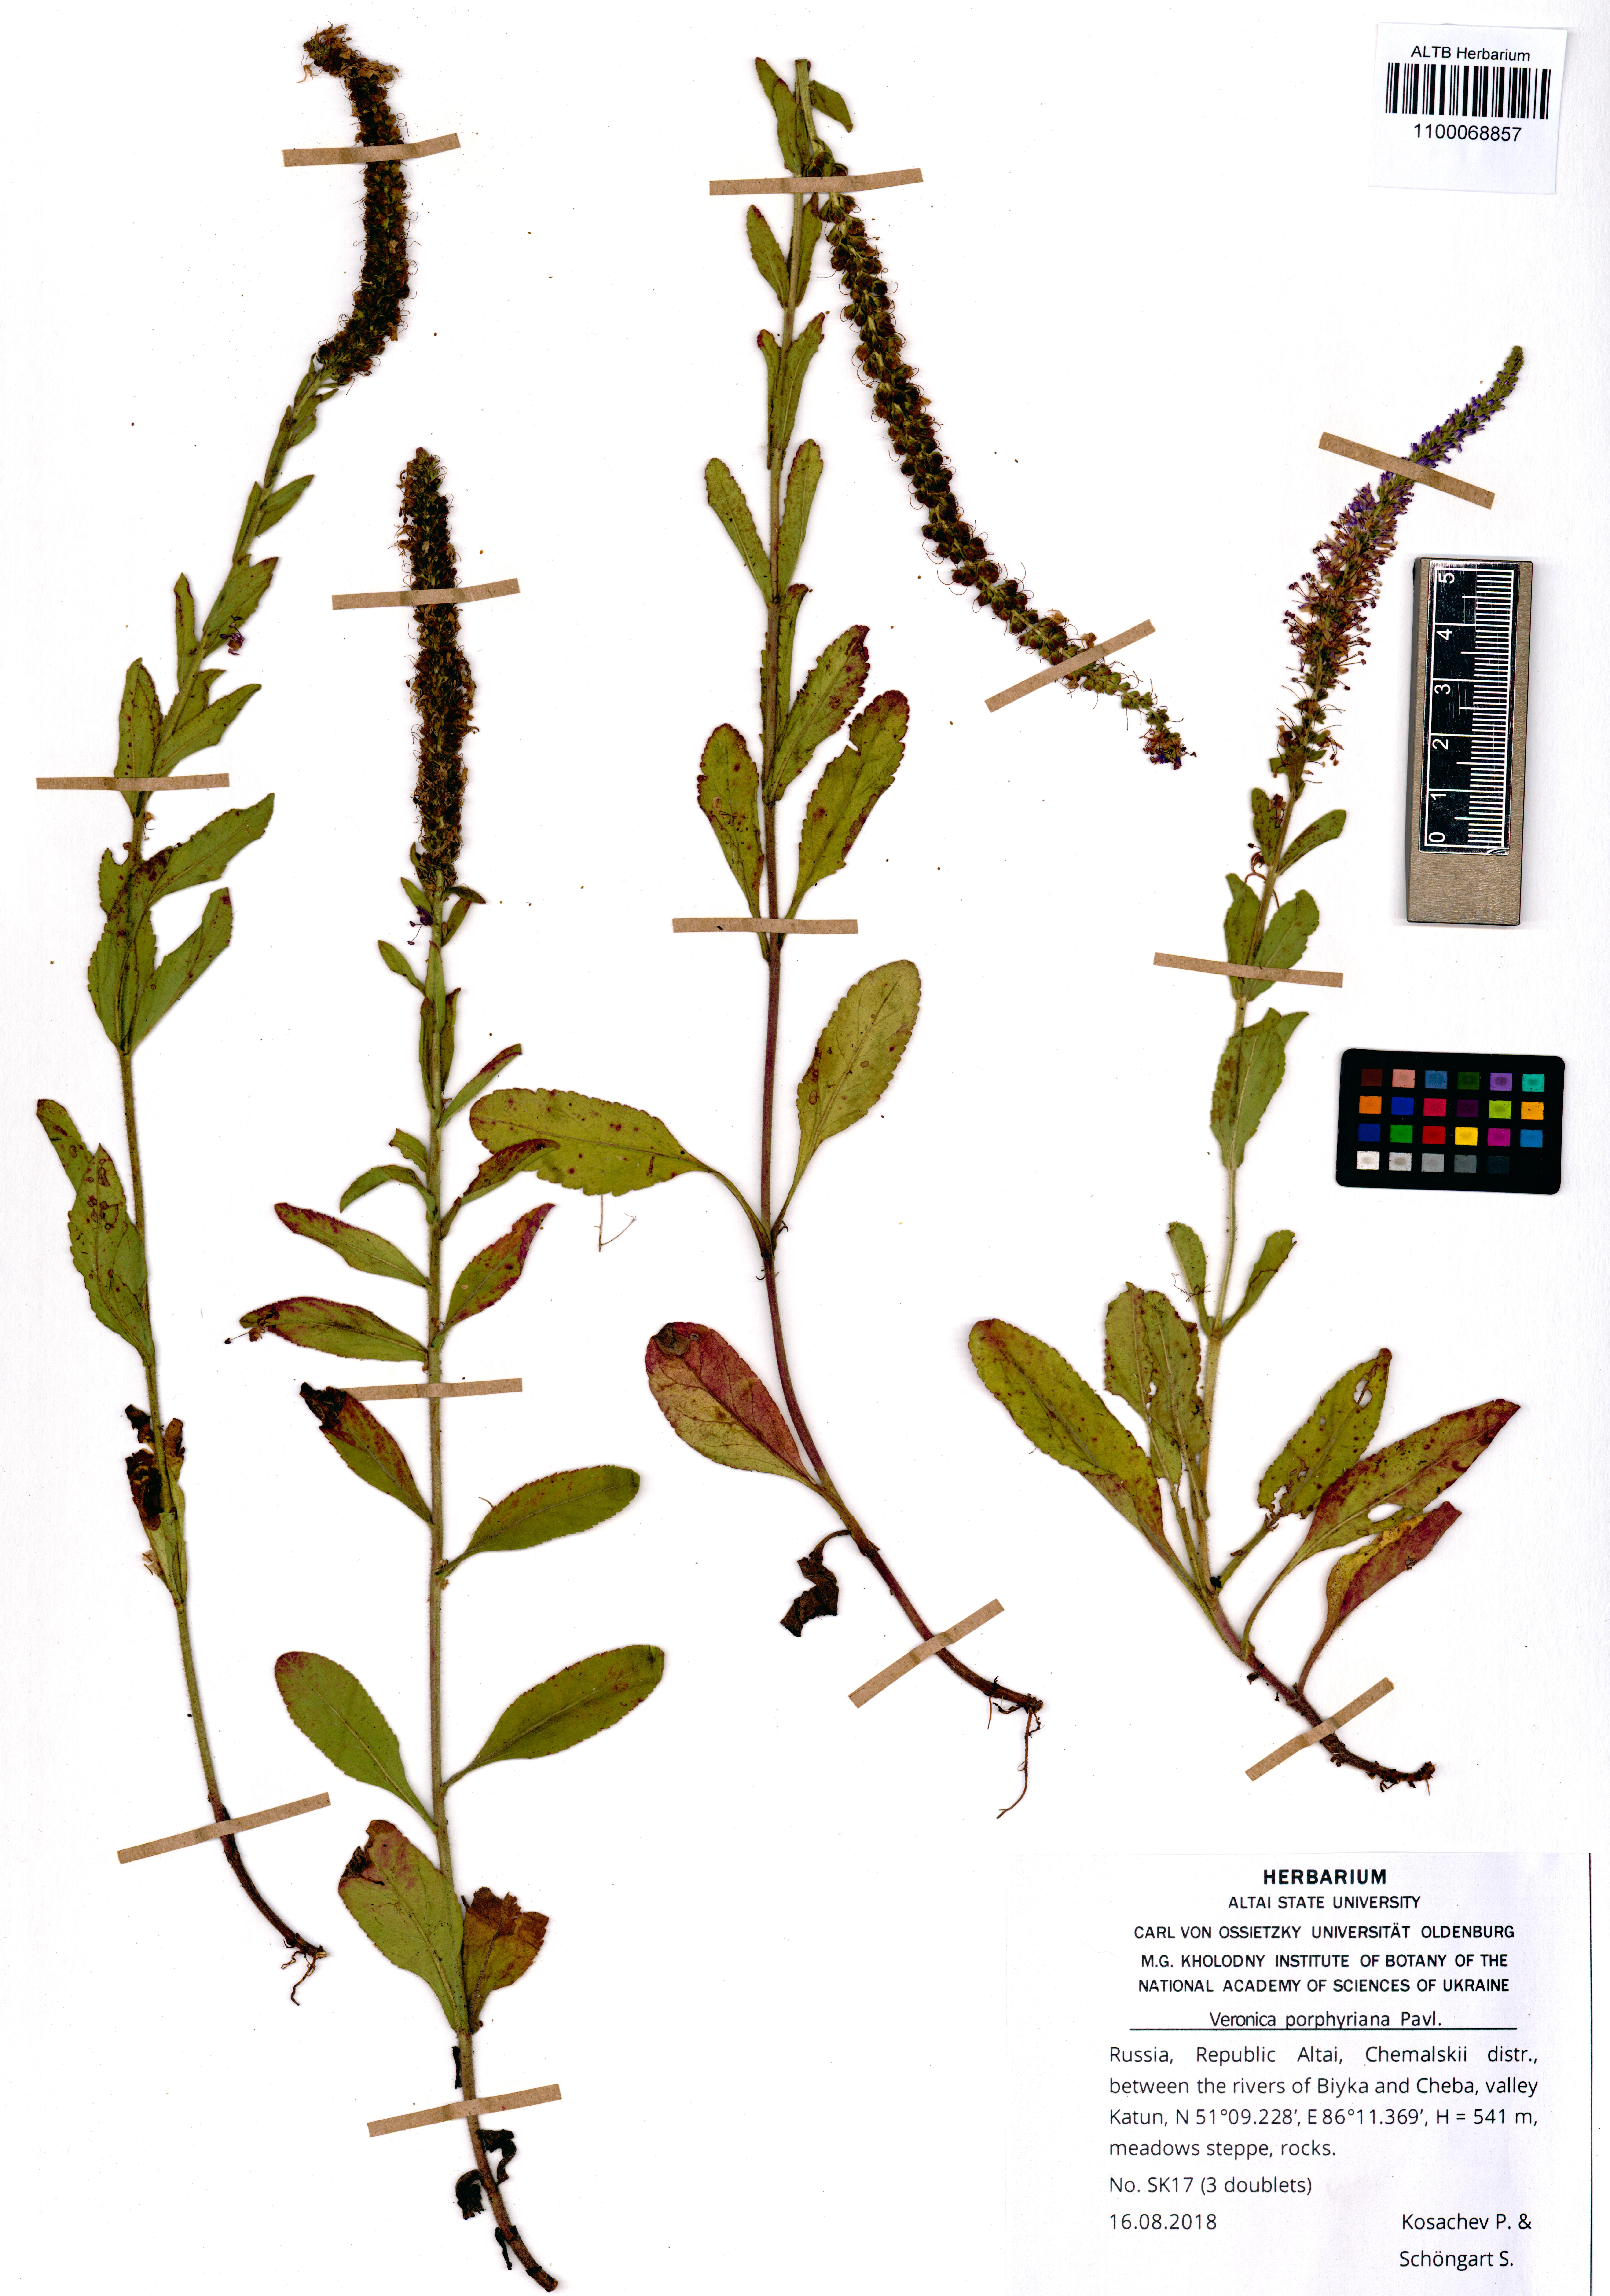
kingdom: Plantae
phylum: Tracheophyta
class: Magnoliopsida
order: Lamiales
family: Plantaginaceae
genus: Veronica
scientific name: Veronica porphyriana
